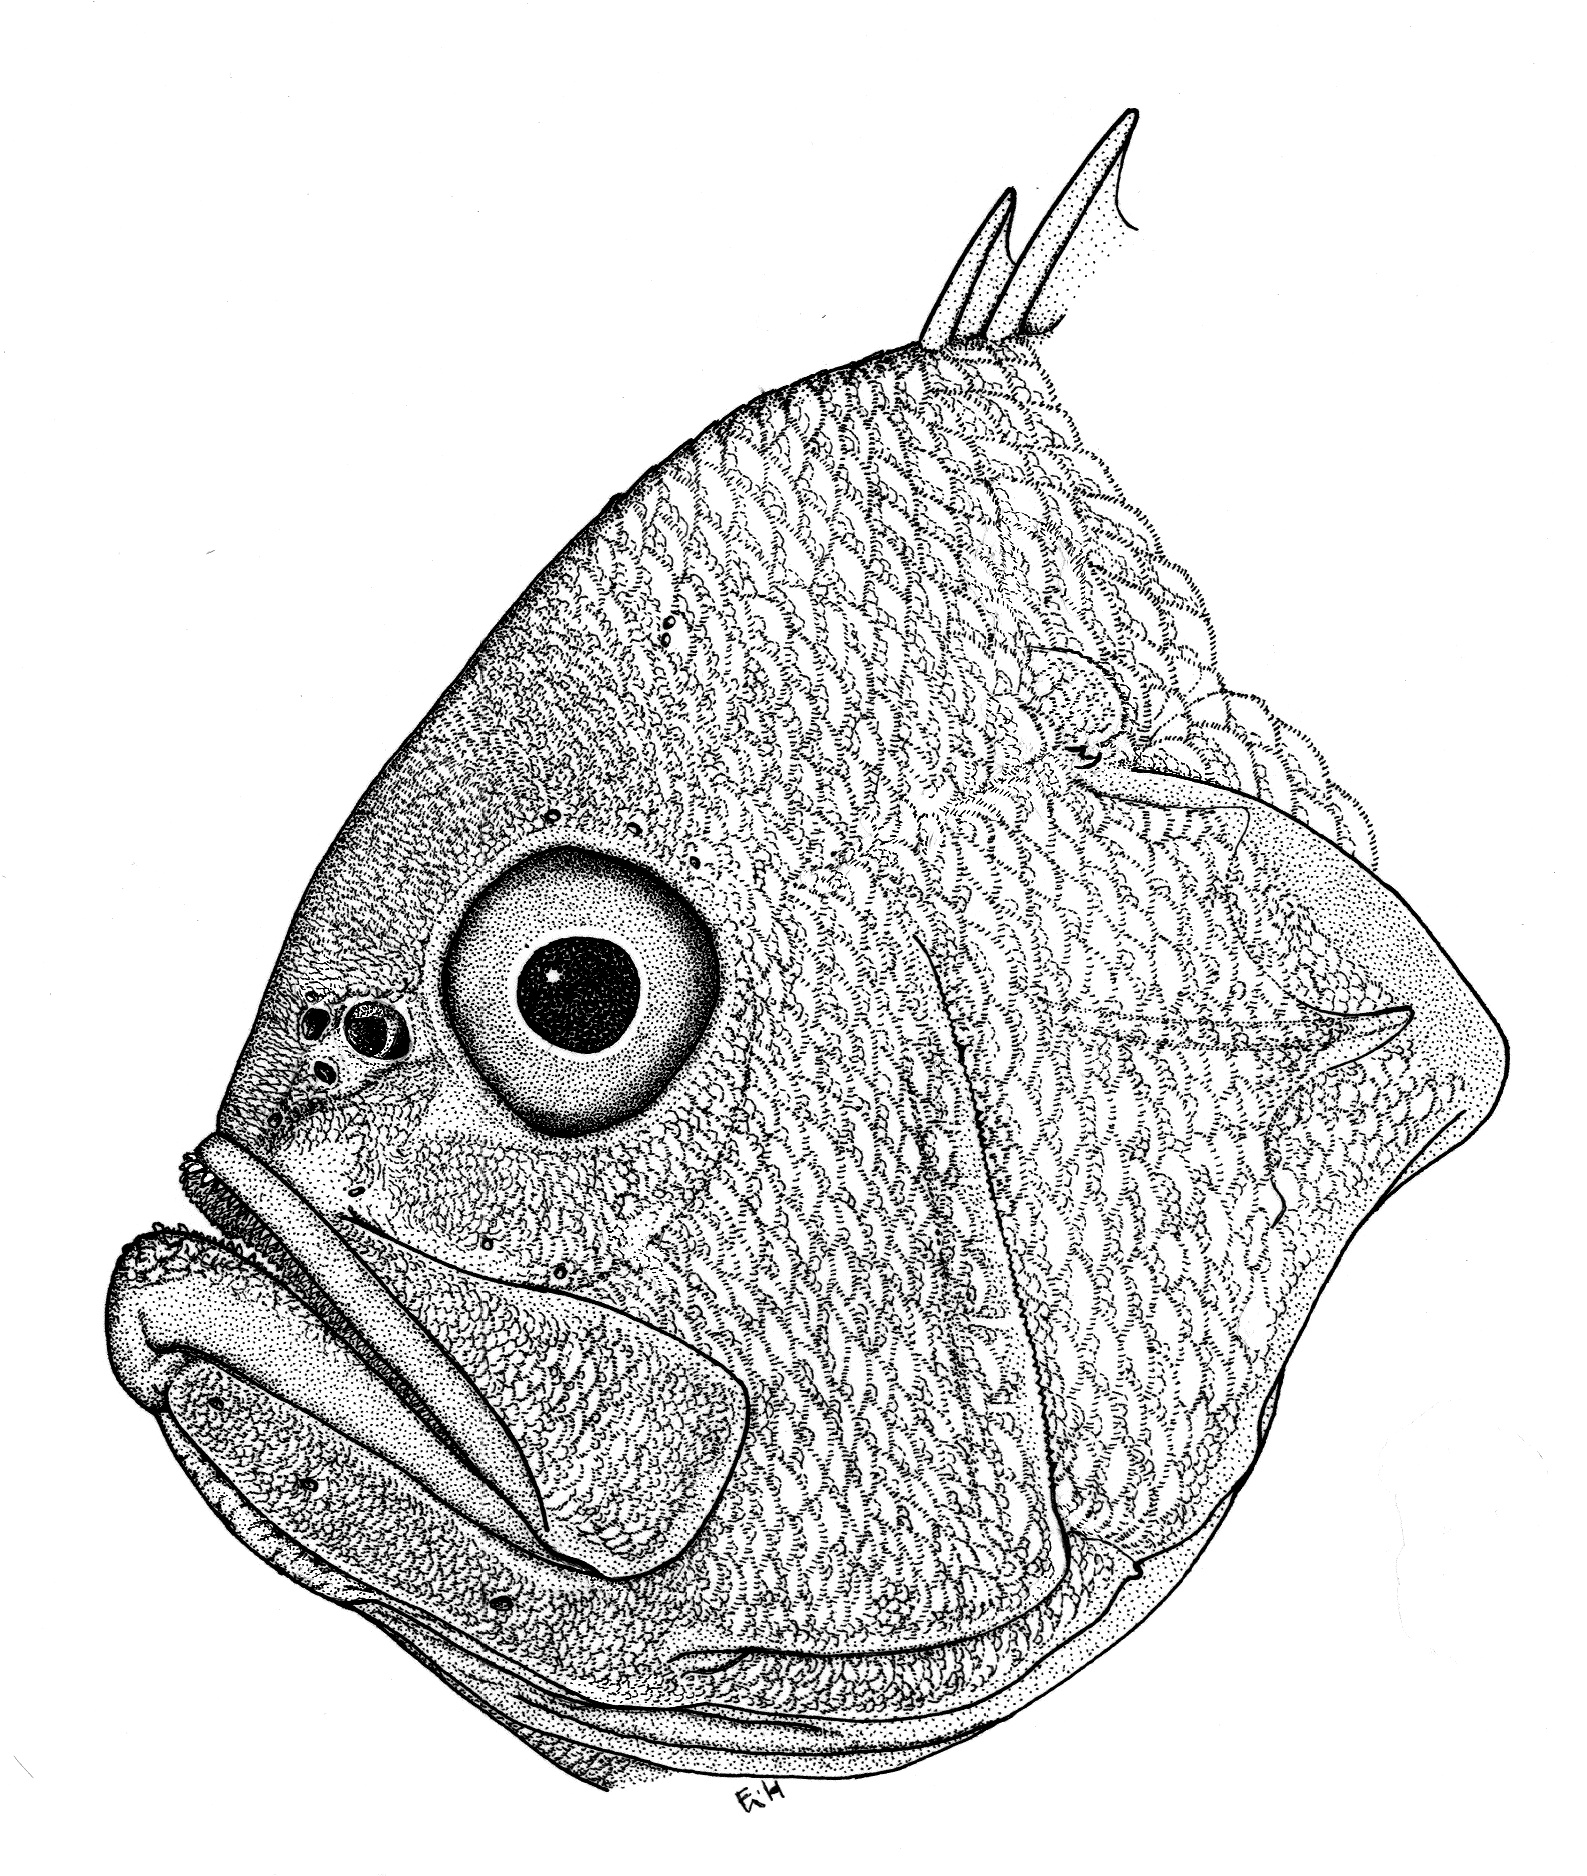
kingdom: Animalia
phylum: Chordata
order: Perciformes
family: Serranidae
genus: Meganthias
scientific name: Meganthias filiferus
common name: Filamentous anthiine
